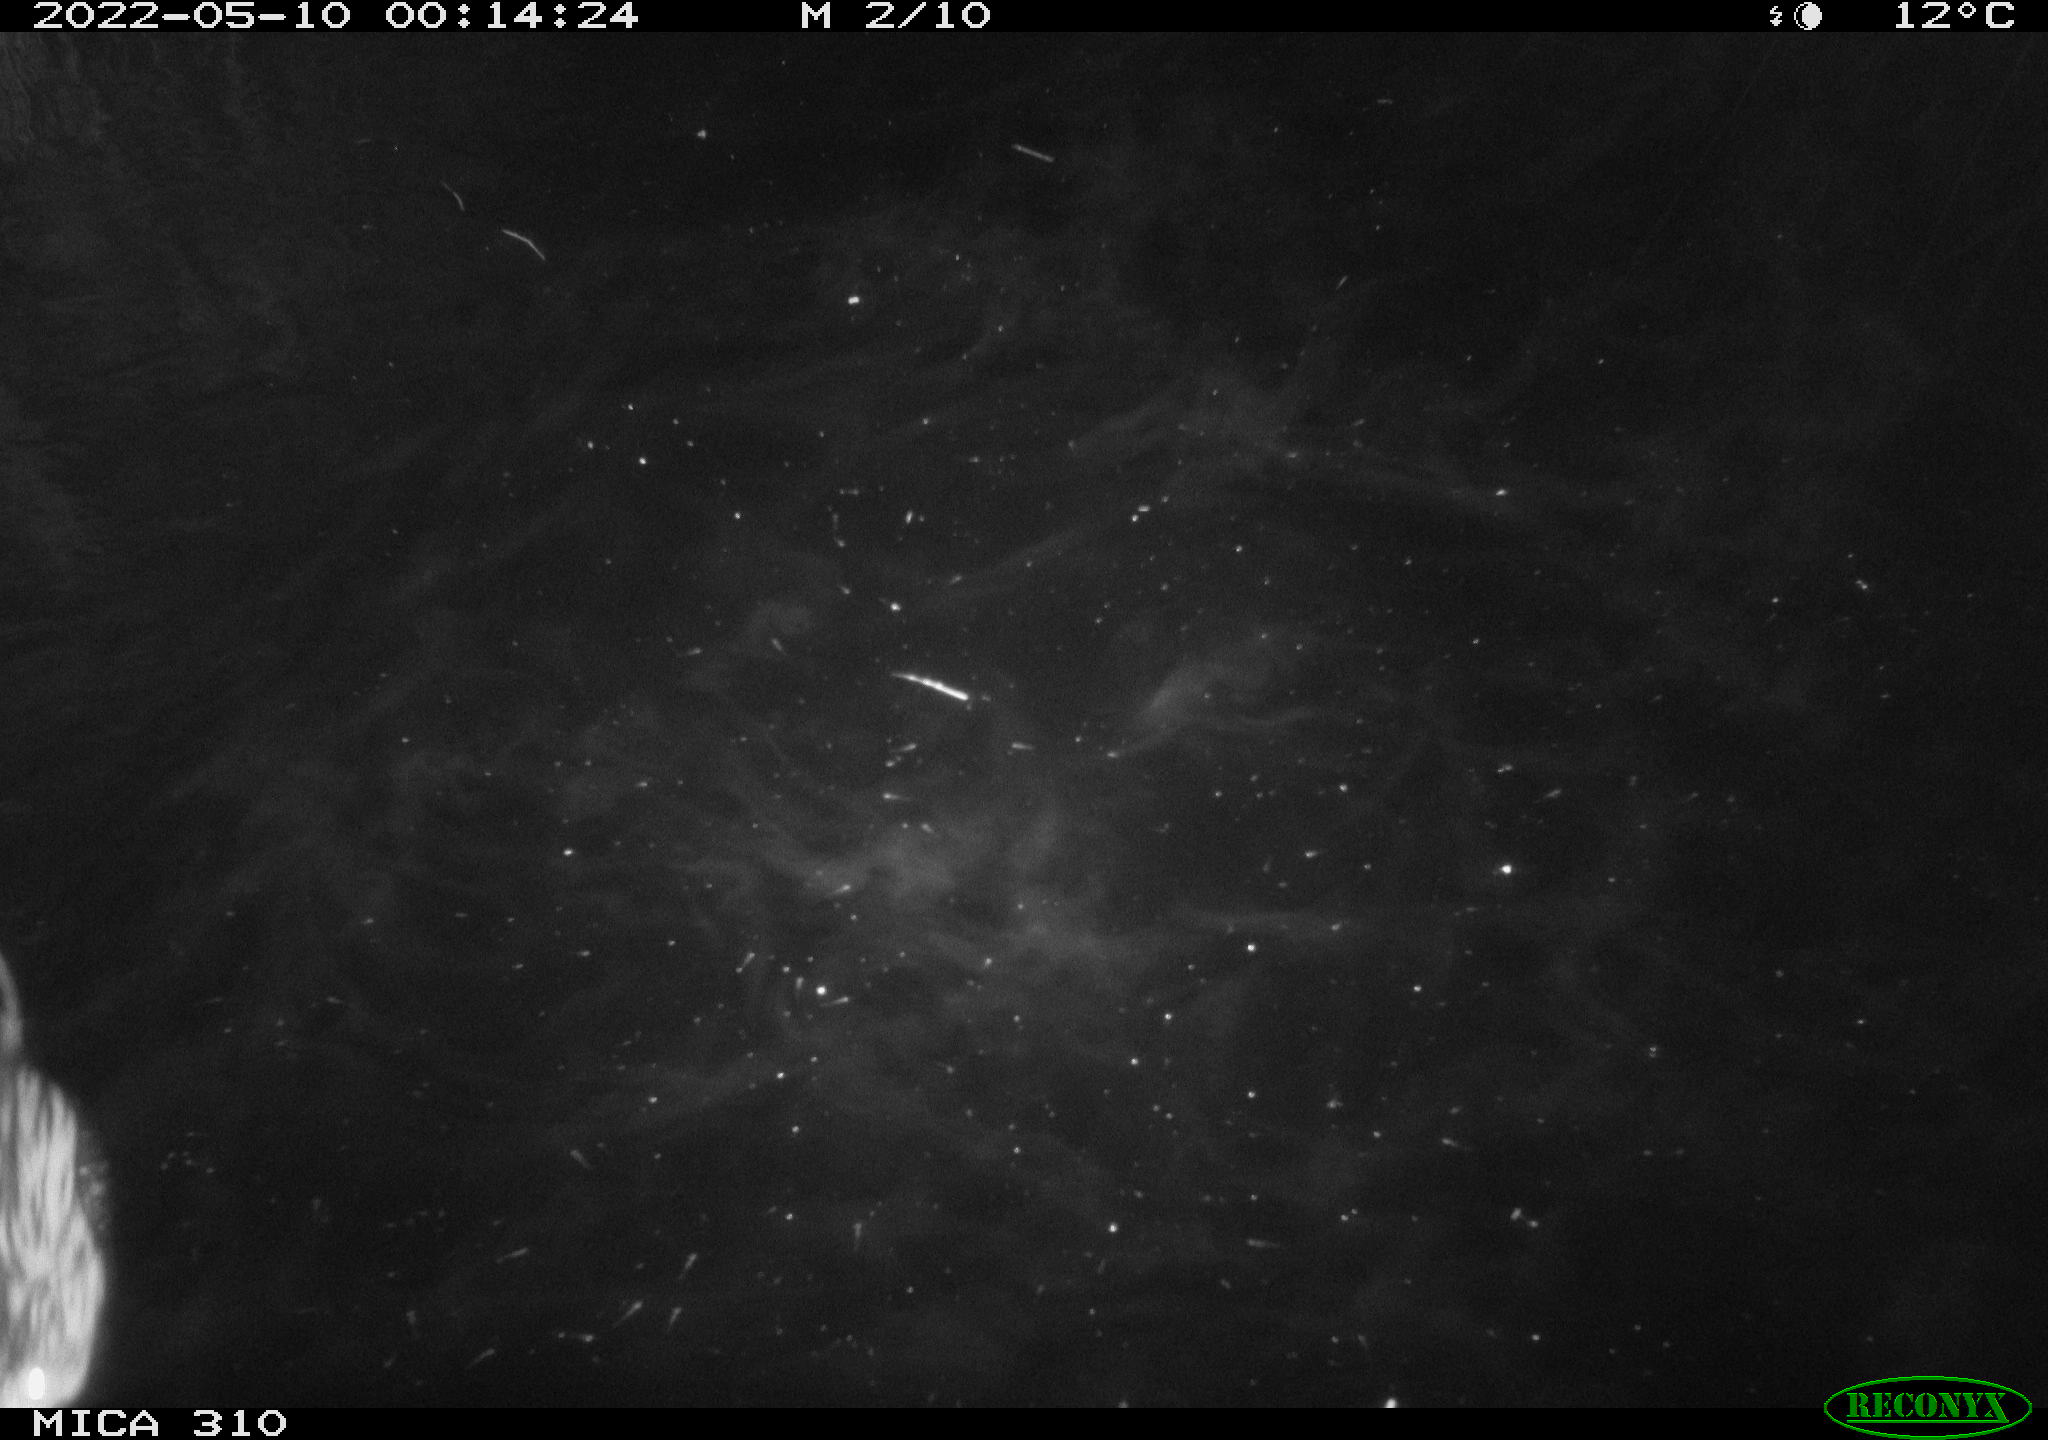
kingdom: Animalia
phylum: Chordata
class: Mammalia
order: Rodentia
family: Cricetidae
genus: Ondatra
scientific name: Ondatra zibethicus
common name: Muskrat
